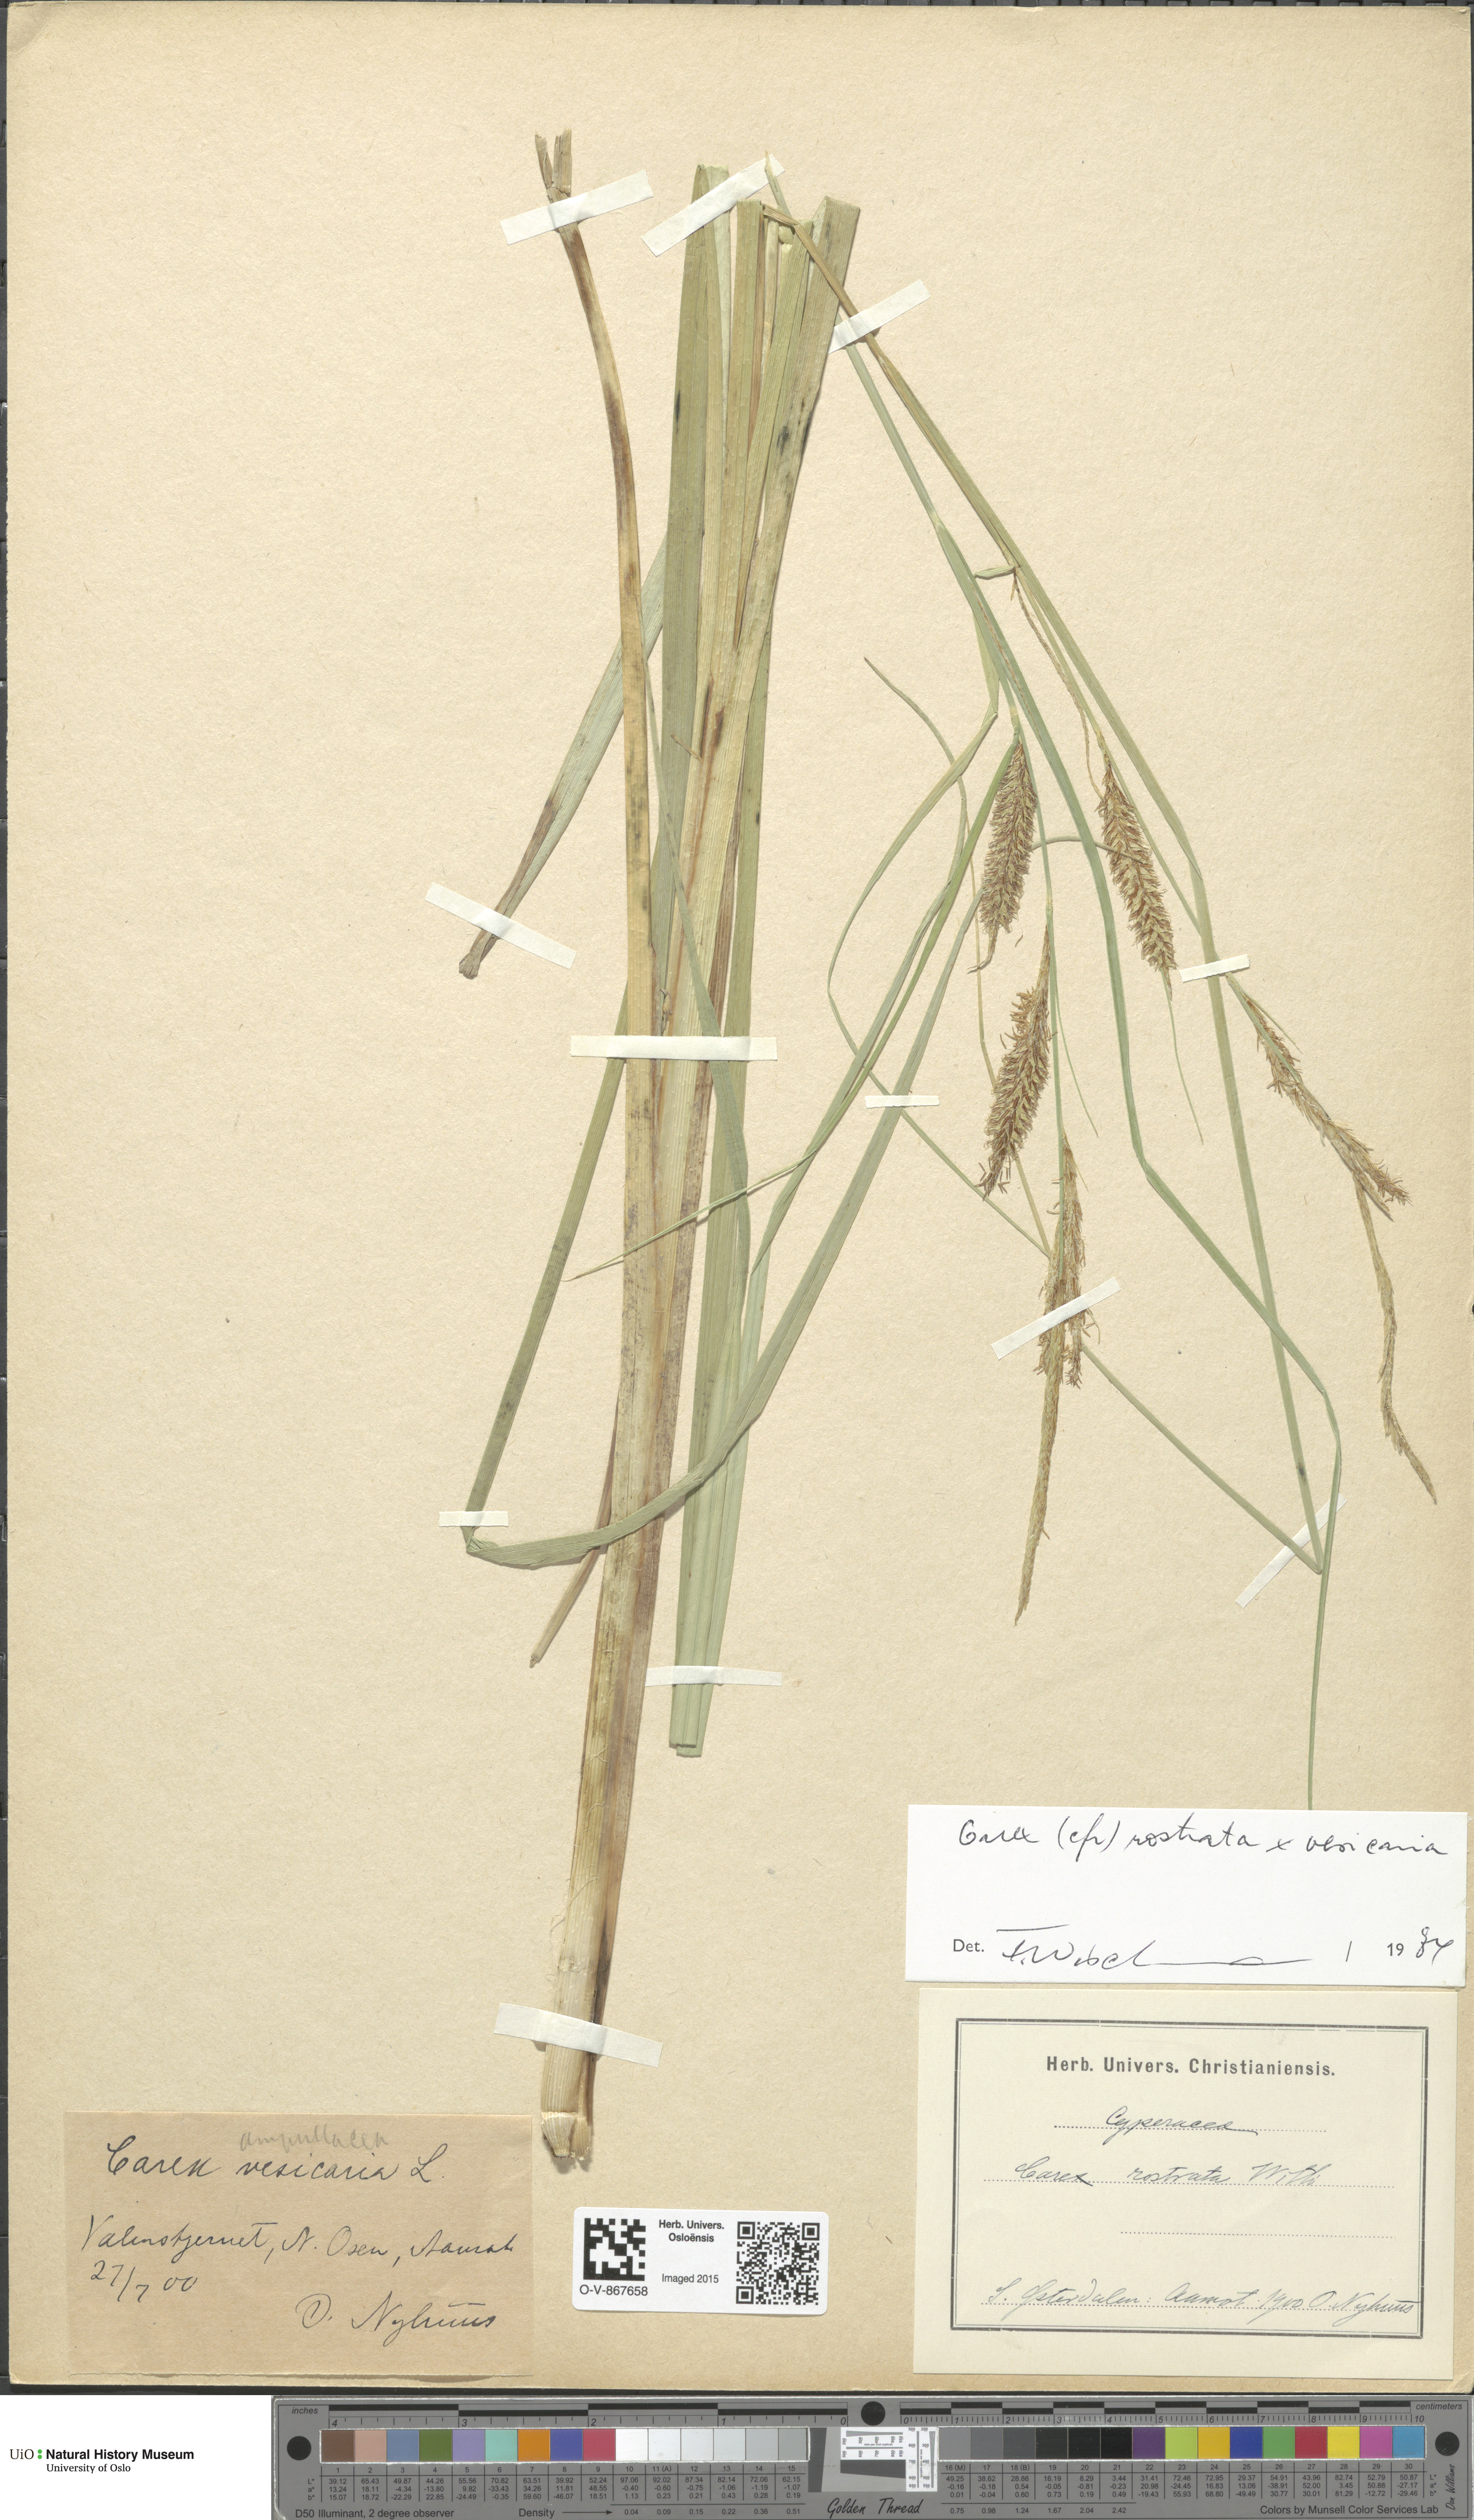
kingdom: Plantae
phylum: Tracheophyta
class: Liliopsida
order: Poales
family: Cyperaceae
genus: Carex
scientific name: Carex
